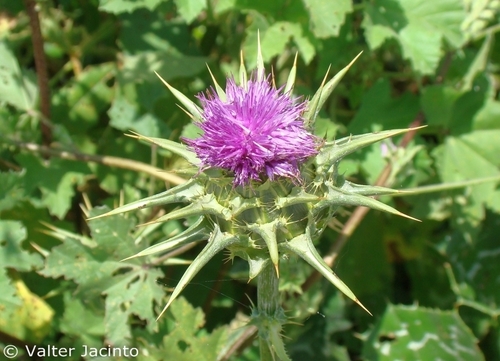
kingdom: Plantae
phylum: Tracheophyta
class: Magnoliopsida
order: Asterales
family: Asteraceae
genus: Silybum
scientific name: Silybum marianum
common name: Milk thistle
